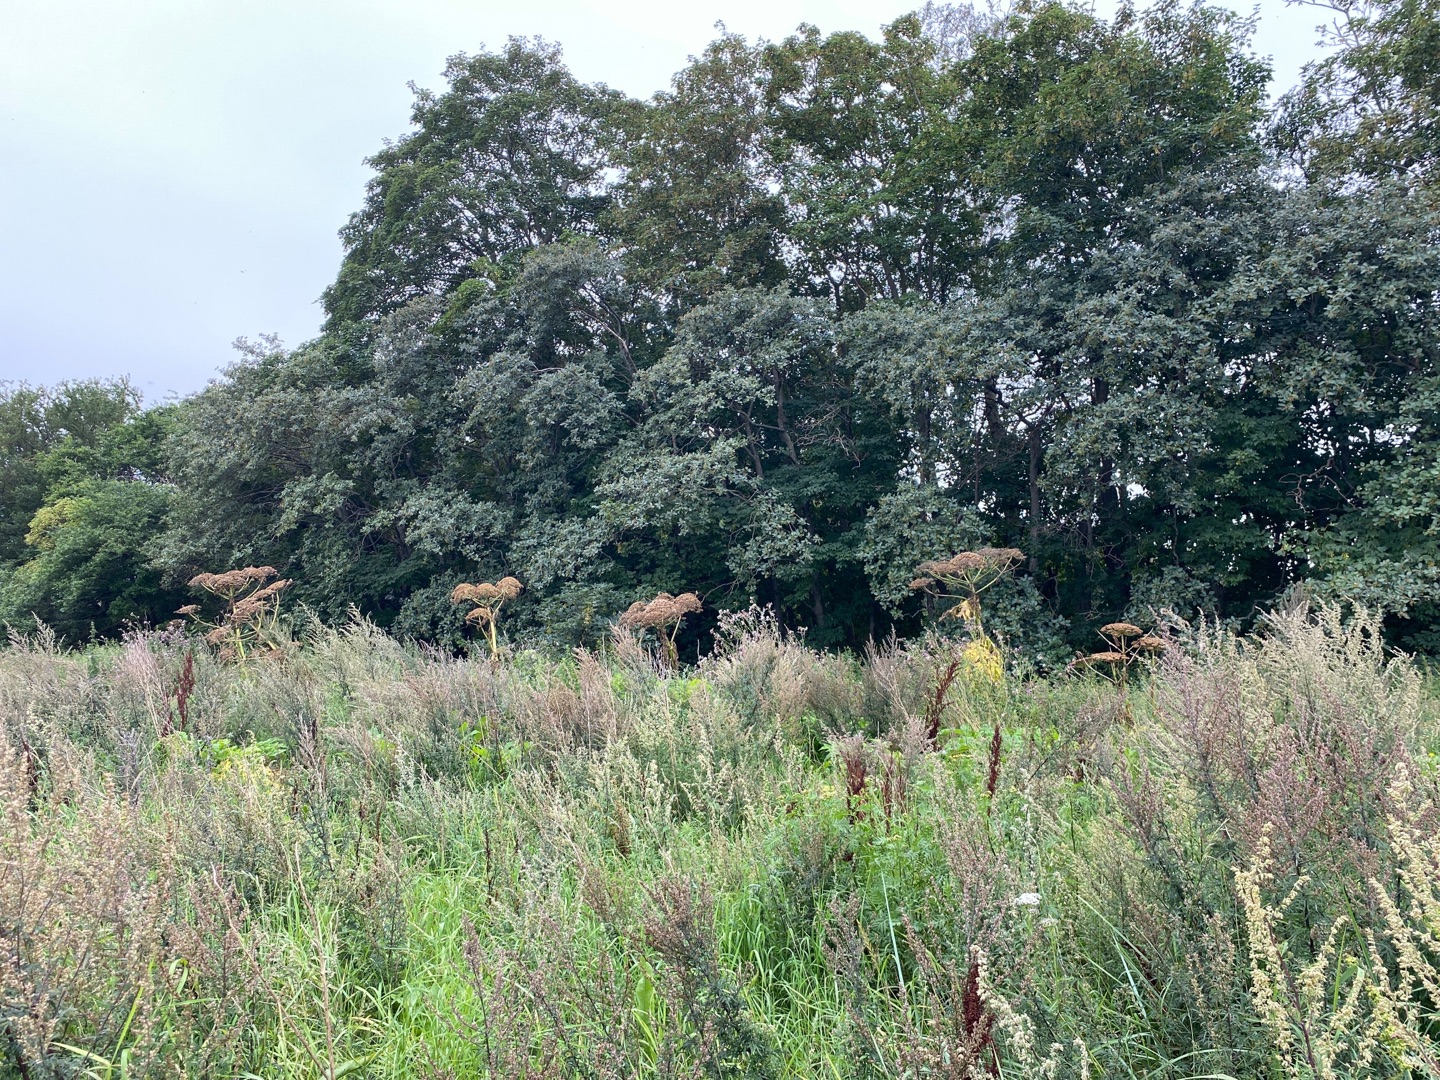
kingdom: Plantae
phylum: Tracheophyta
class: Magnoliopsida
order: Apiales
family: Apiaceae
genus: Heracleum
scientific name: Heracleum mantegazzianum
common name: Kæmpe-bjørneklo
